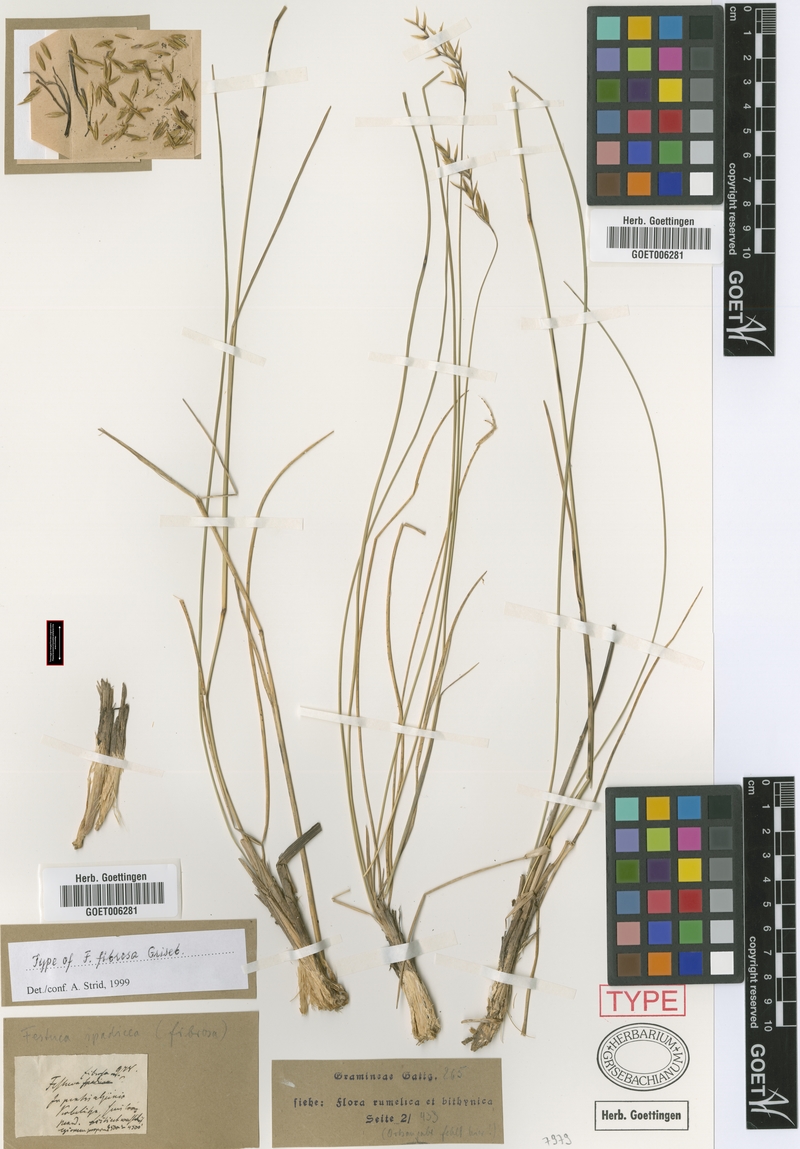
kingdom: Plantae
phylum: Tracheophyta
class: Liliopsida
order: Poales
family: Poaceae
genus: Patzkea
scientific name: Patzkea paniculata
